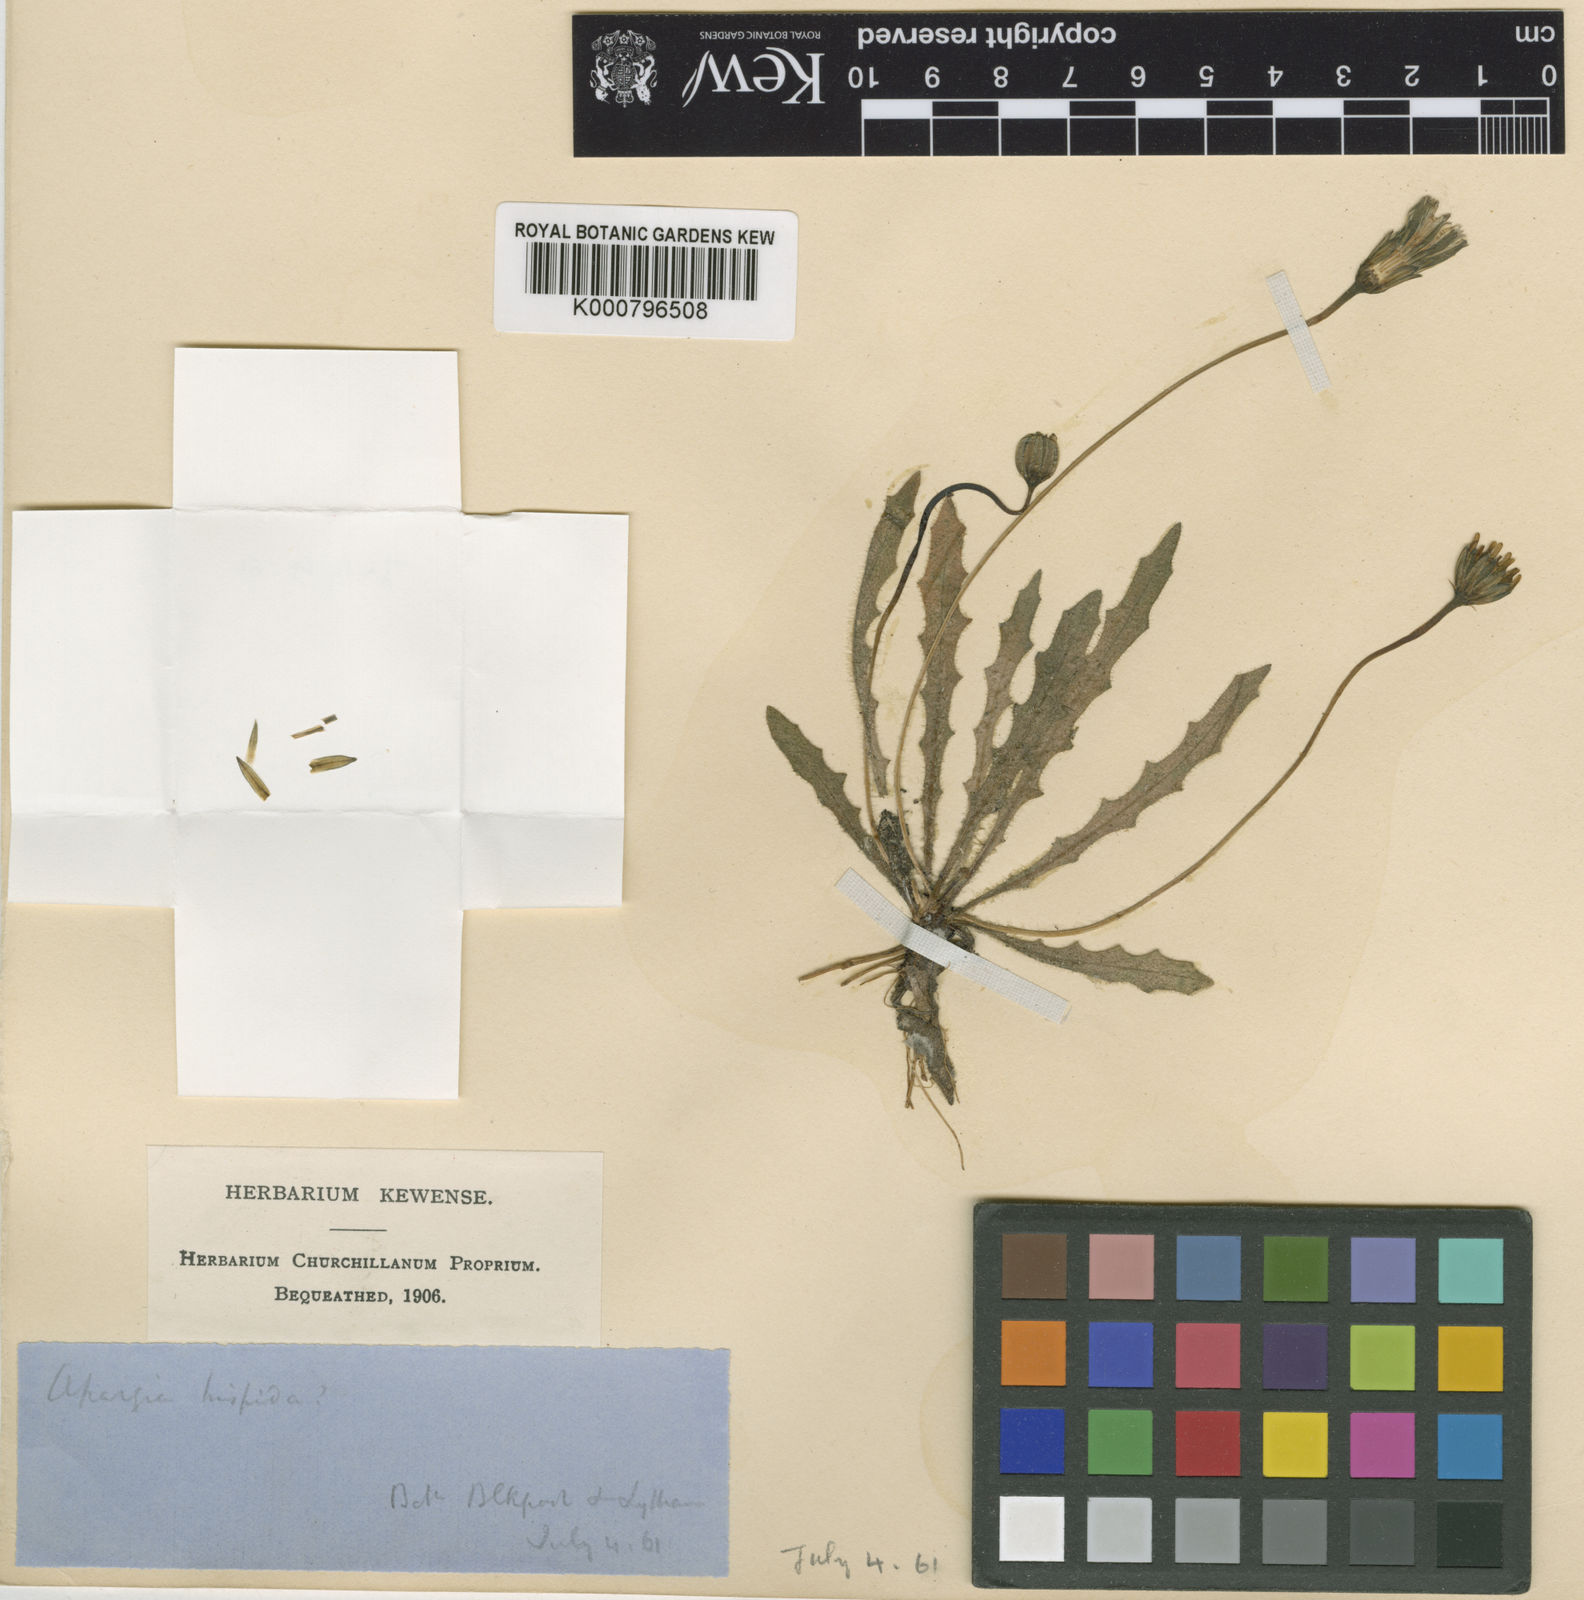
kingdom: Plantae
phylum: Tracheophyta
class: Magnoliopsida
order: Asterales
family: Asteraceae
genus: Leontodon
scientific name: Leontodon
